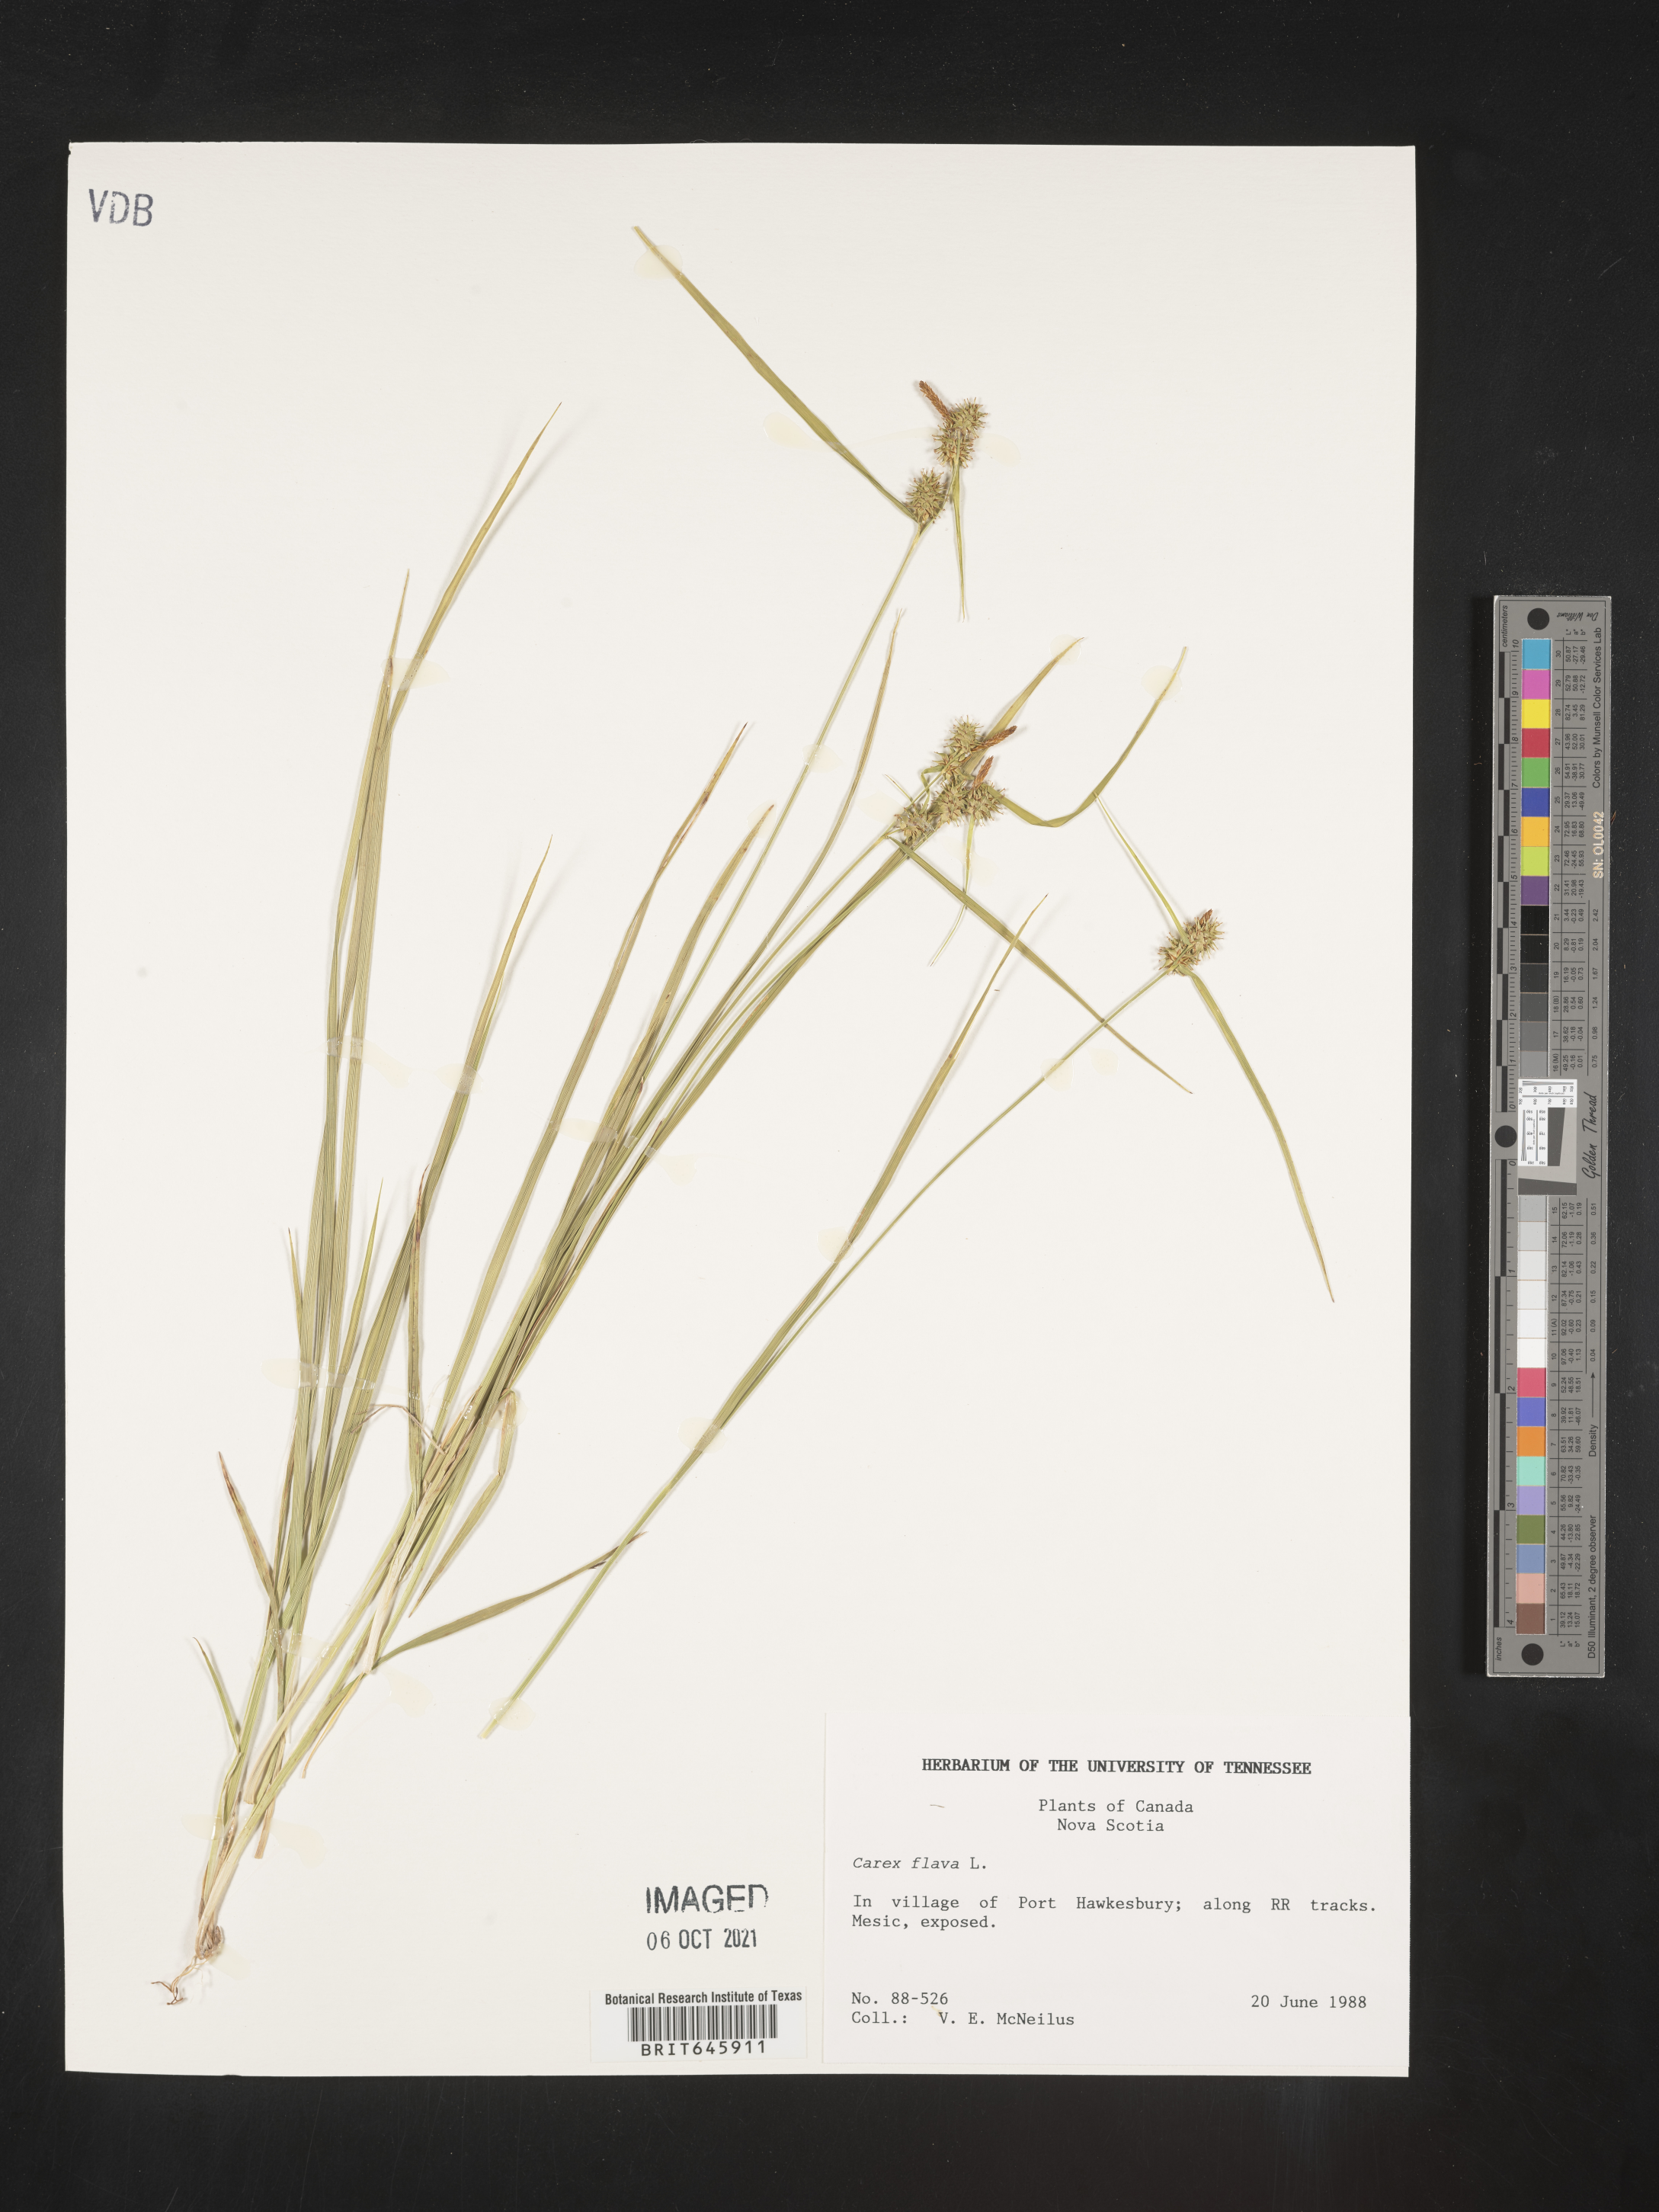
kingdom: Plantae
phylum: Tracheophyta
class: Liliopsida
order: Poales
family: Cyperaceae
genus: Carex
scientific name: Carex flava
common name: Large yellow-sedge
